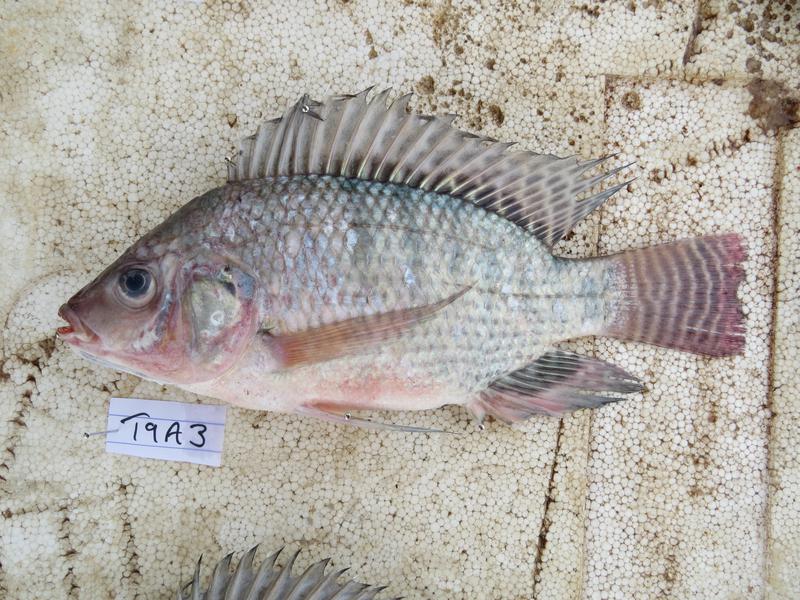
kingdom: Animalia
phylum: Chordata
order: Perciformes
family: Cichlidae
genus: Oreochromis
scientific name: Oreochromis niloticus
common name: Nile tilapia
